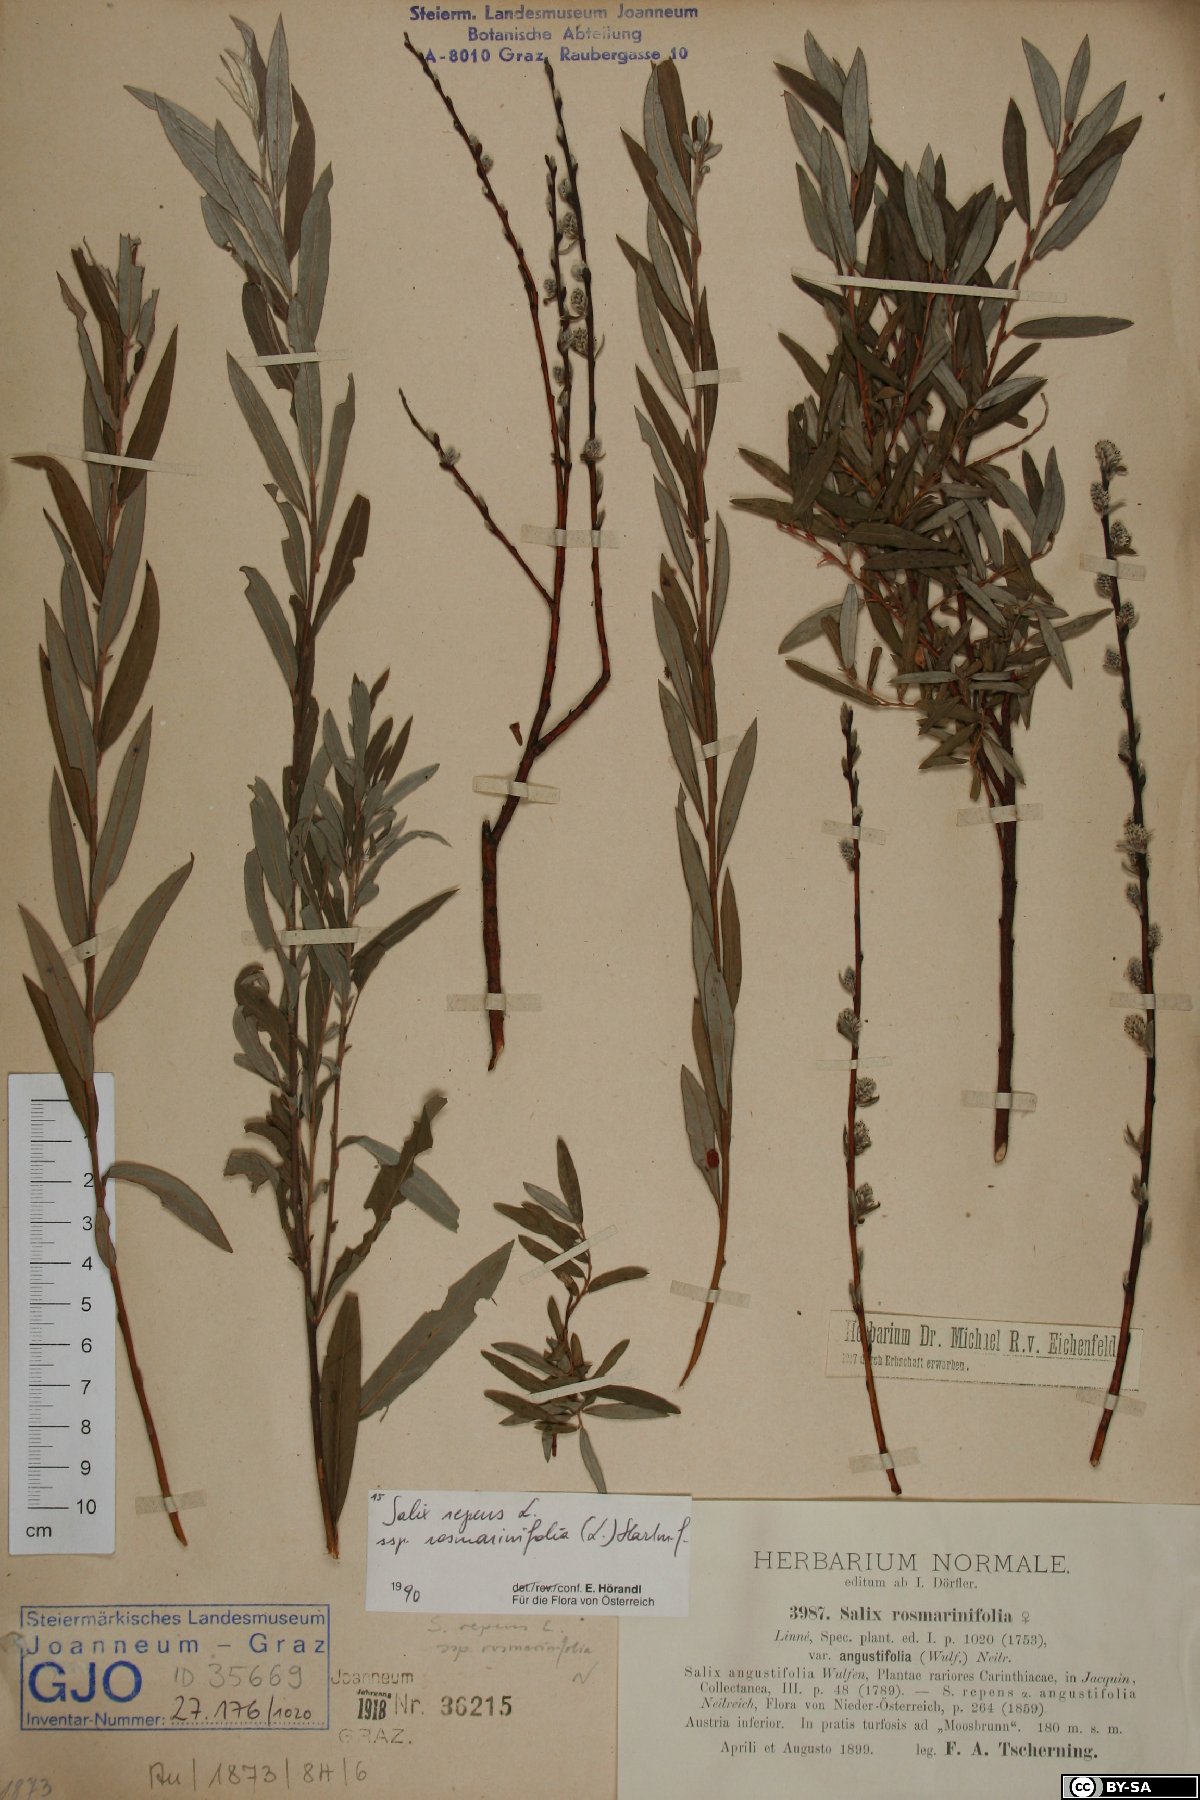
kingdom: Plantae
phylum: Tracheophyta
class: Magnoliopsida
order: Malpighiales
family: Salicaceae
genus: Salix
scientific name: Salix repens
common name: Creeping willow
